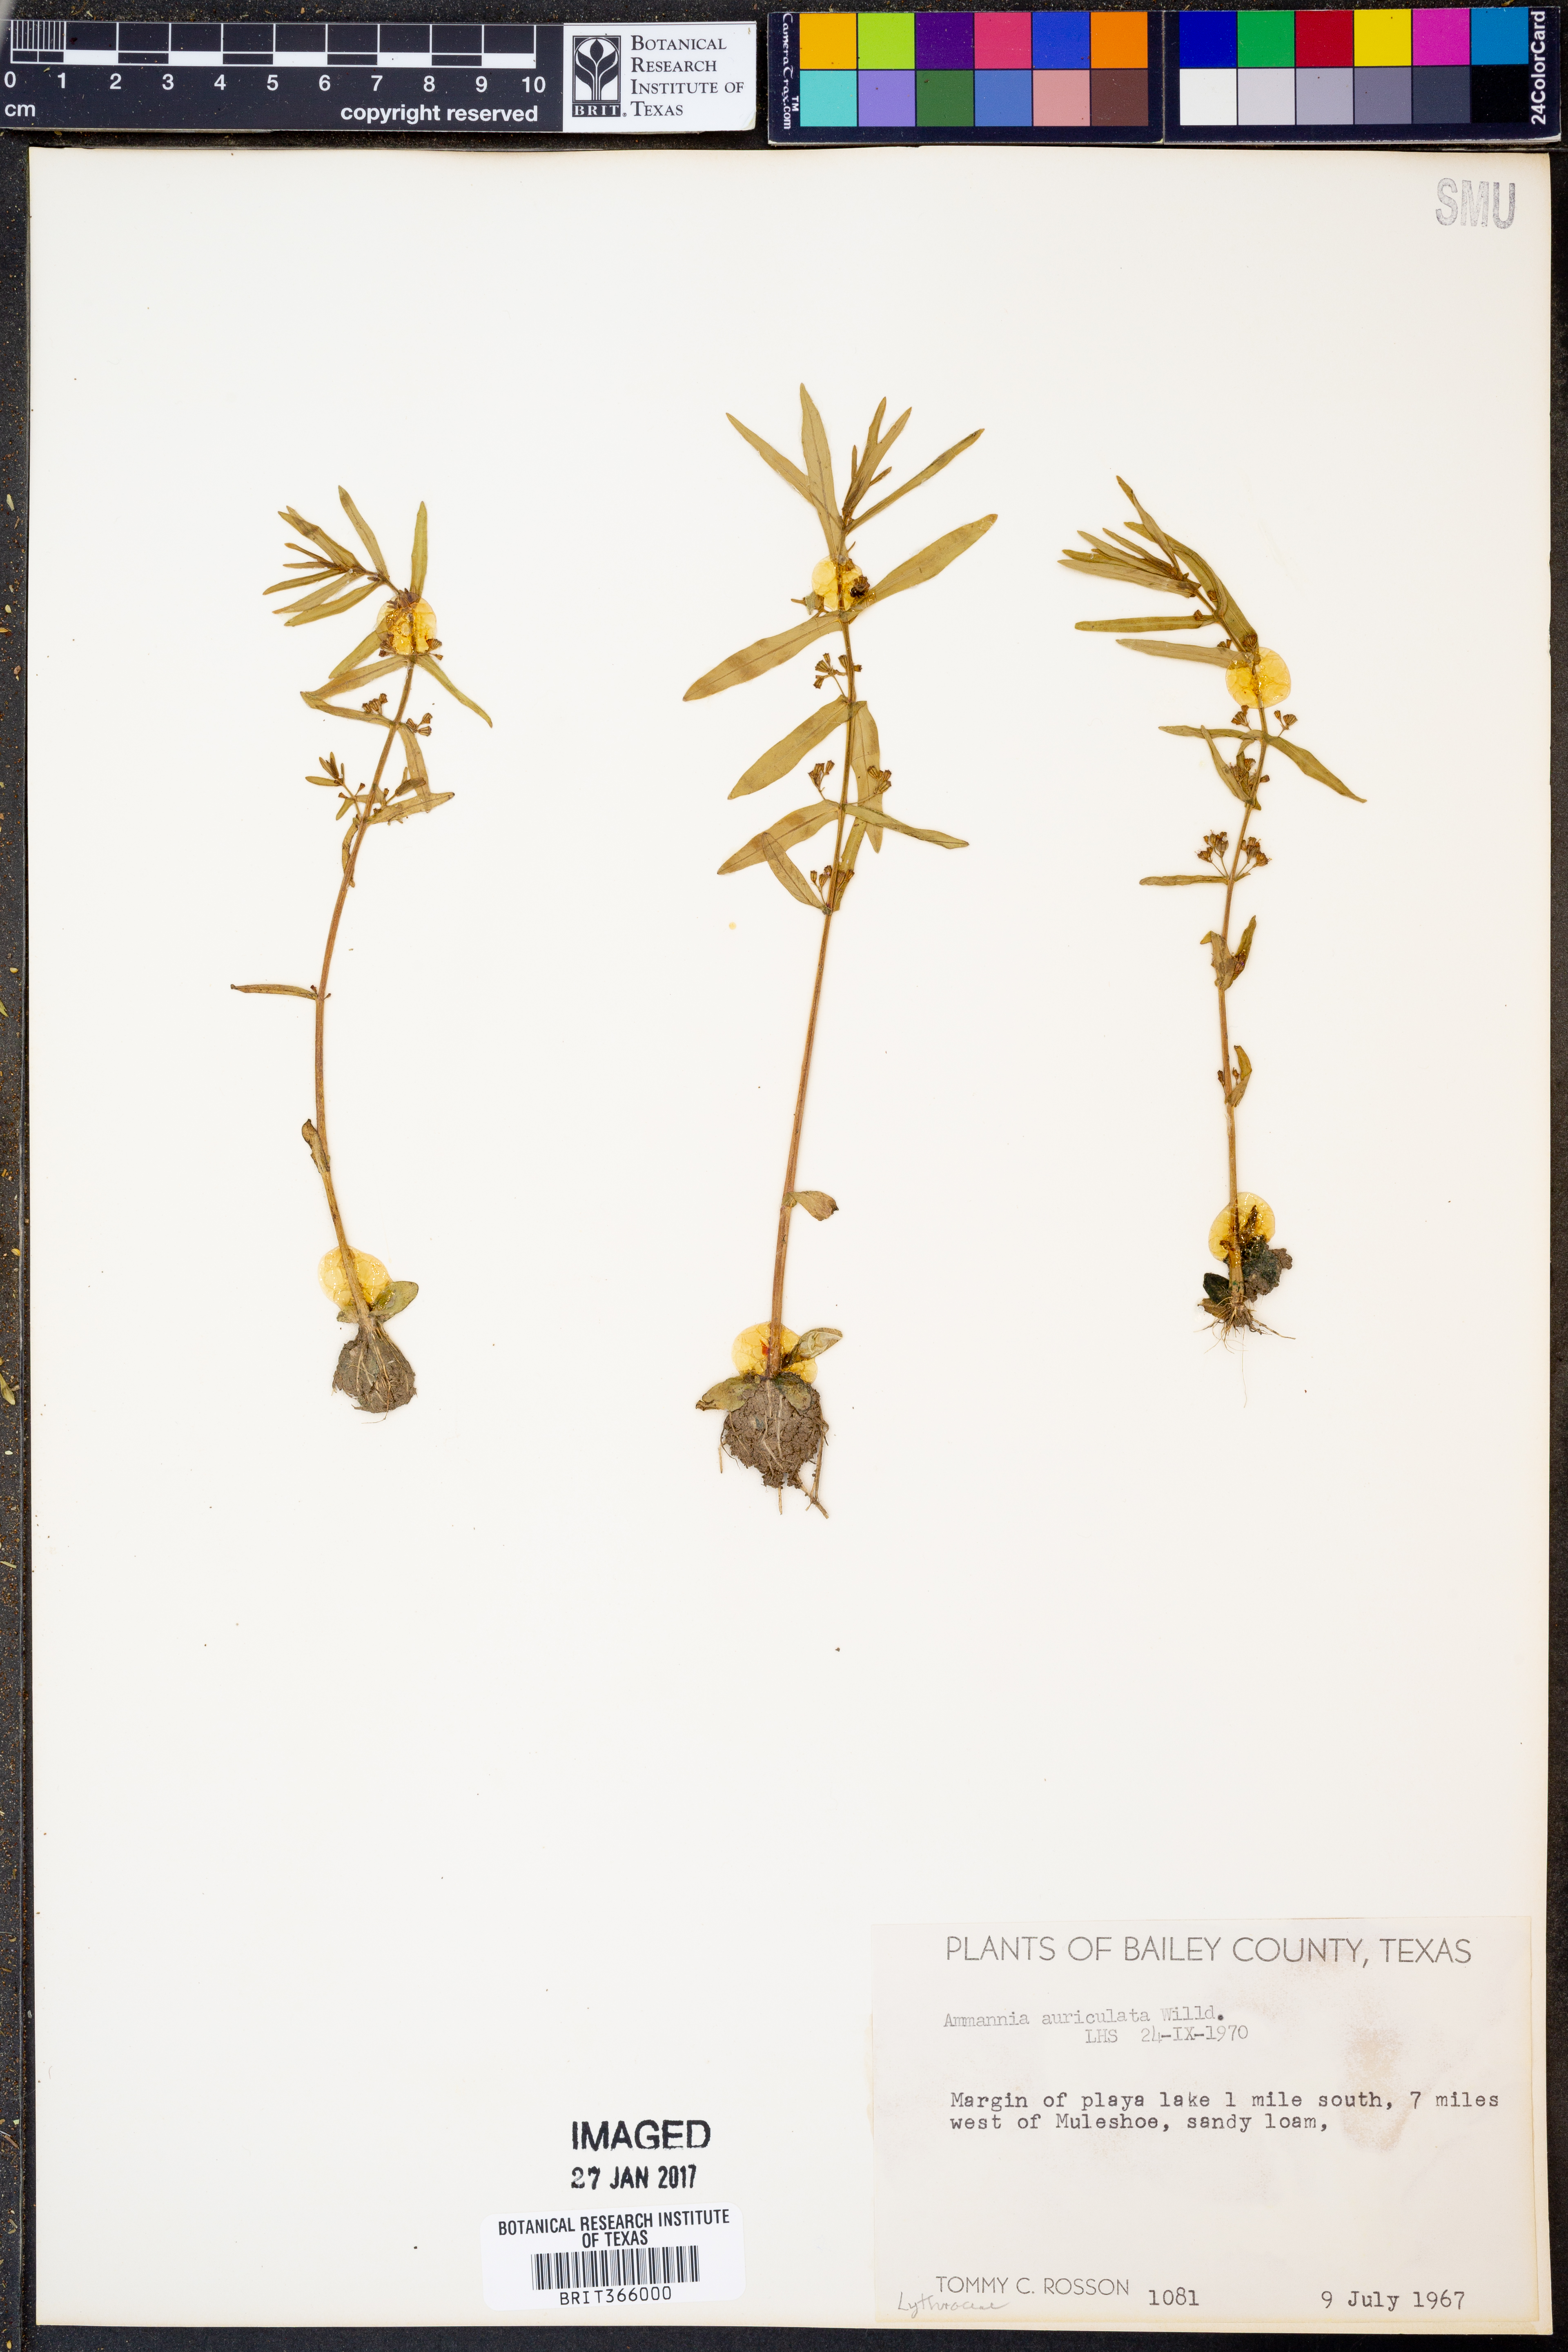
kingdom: Plantae
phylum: Tracheophyta
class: Magnoliopsida
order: Myrtales
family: Lythraceae
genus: Ammannia
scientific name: Ammannia auriculata
